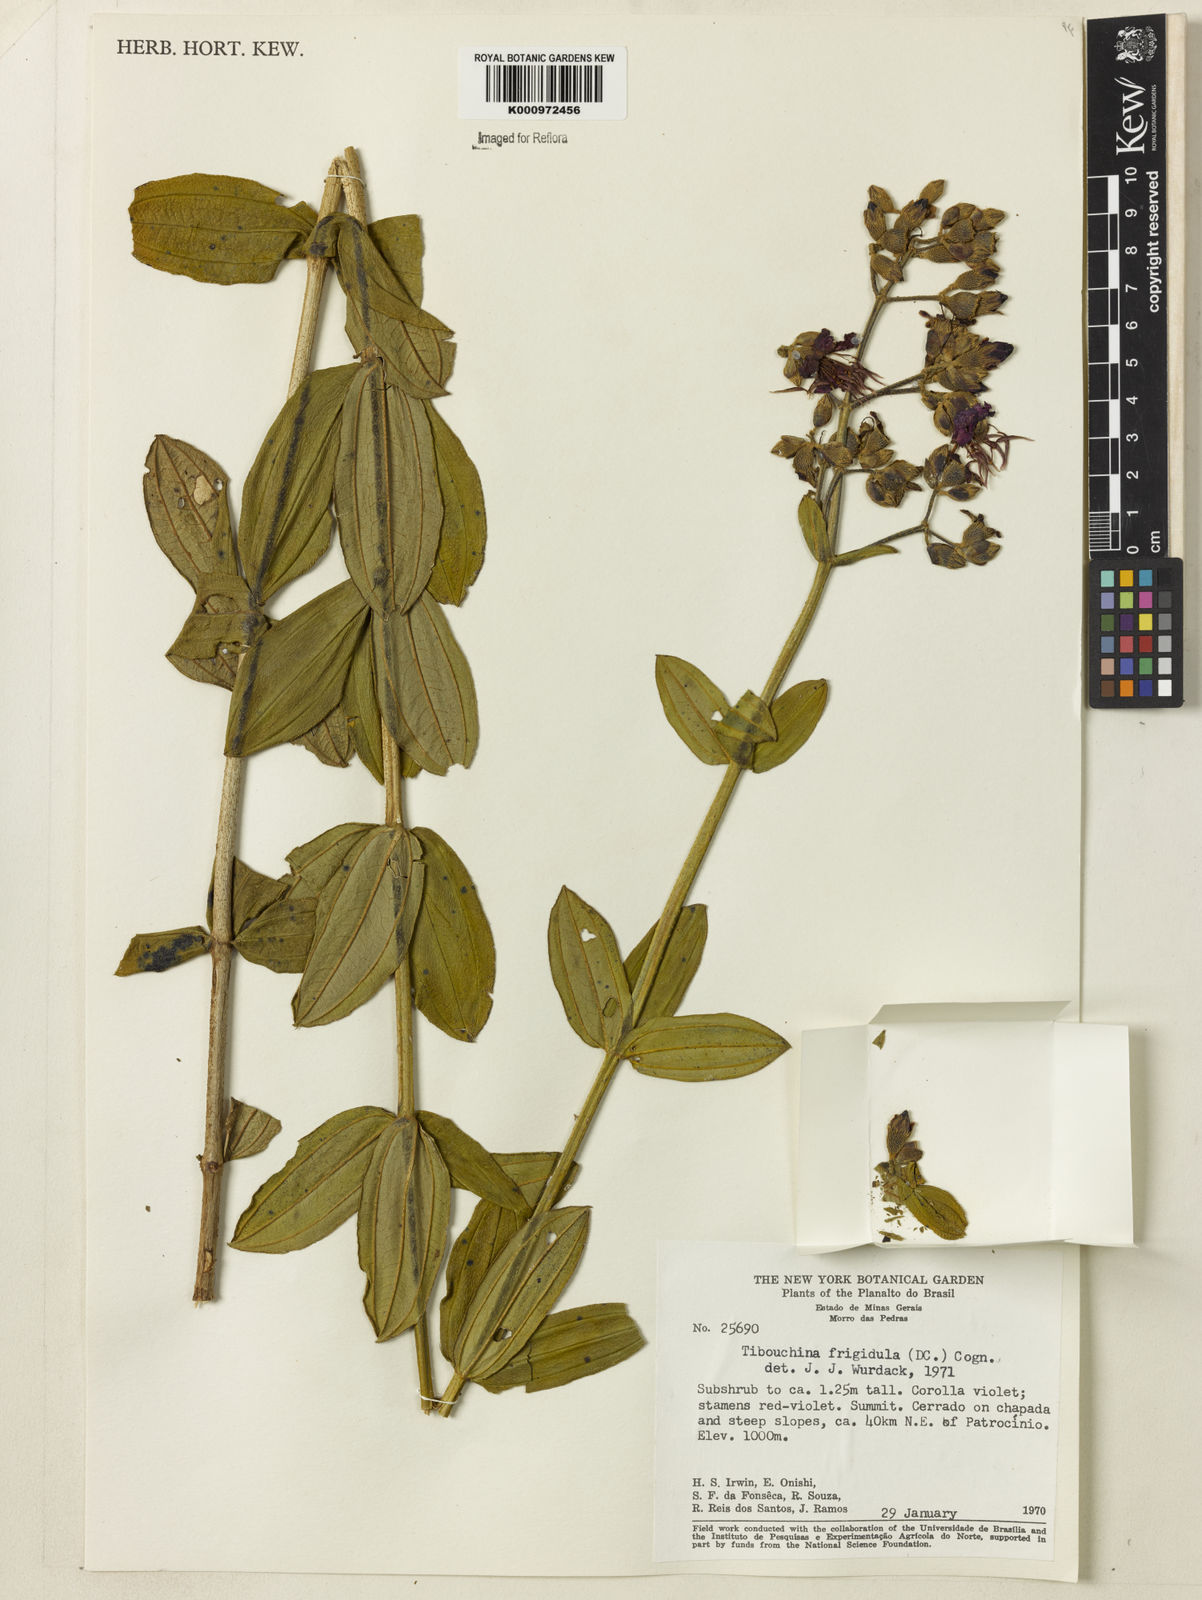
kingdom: Plantae
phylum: Tracheophyta
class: Magnoliopsida
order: Myrtales
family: Melastomataceae
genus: Pleroma
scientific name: Pleroma pilosum
